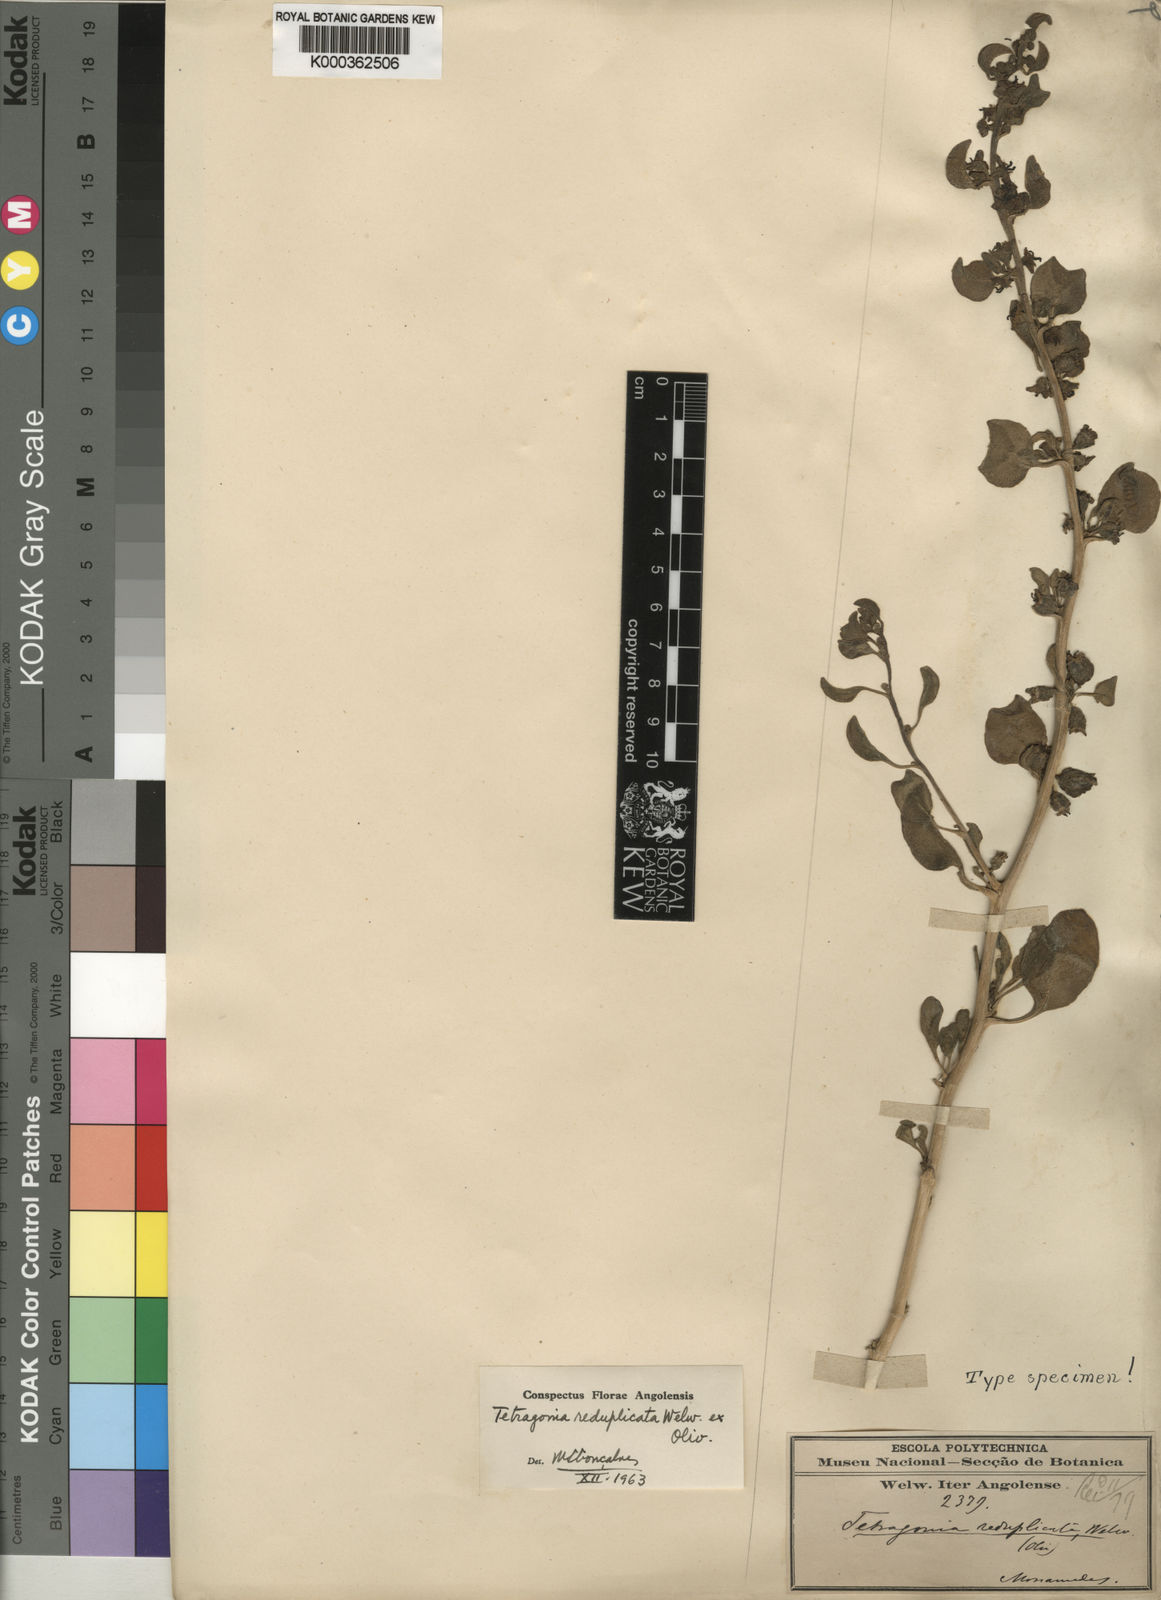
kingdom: Plantae
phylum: Tracheophyta
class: Magnoliopsida
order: Caryophyllales
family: Aizoaceae
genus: Tetragonia
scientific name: Tetragonia reduplicata
